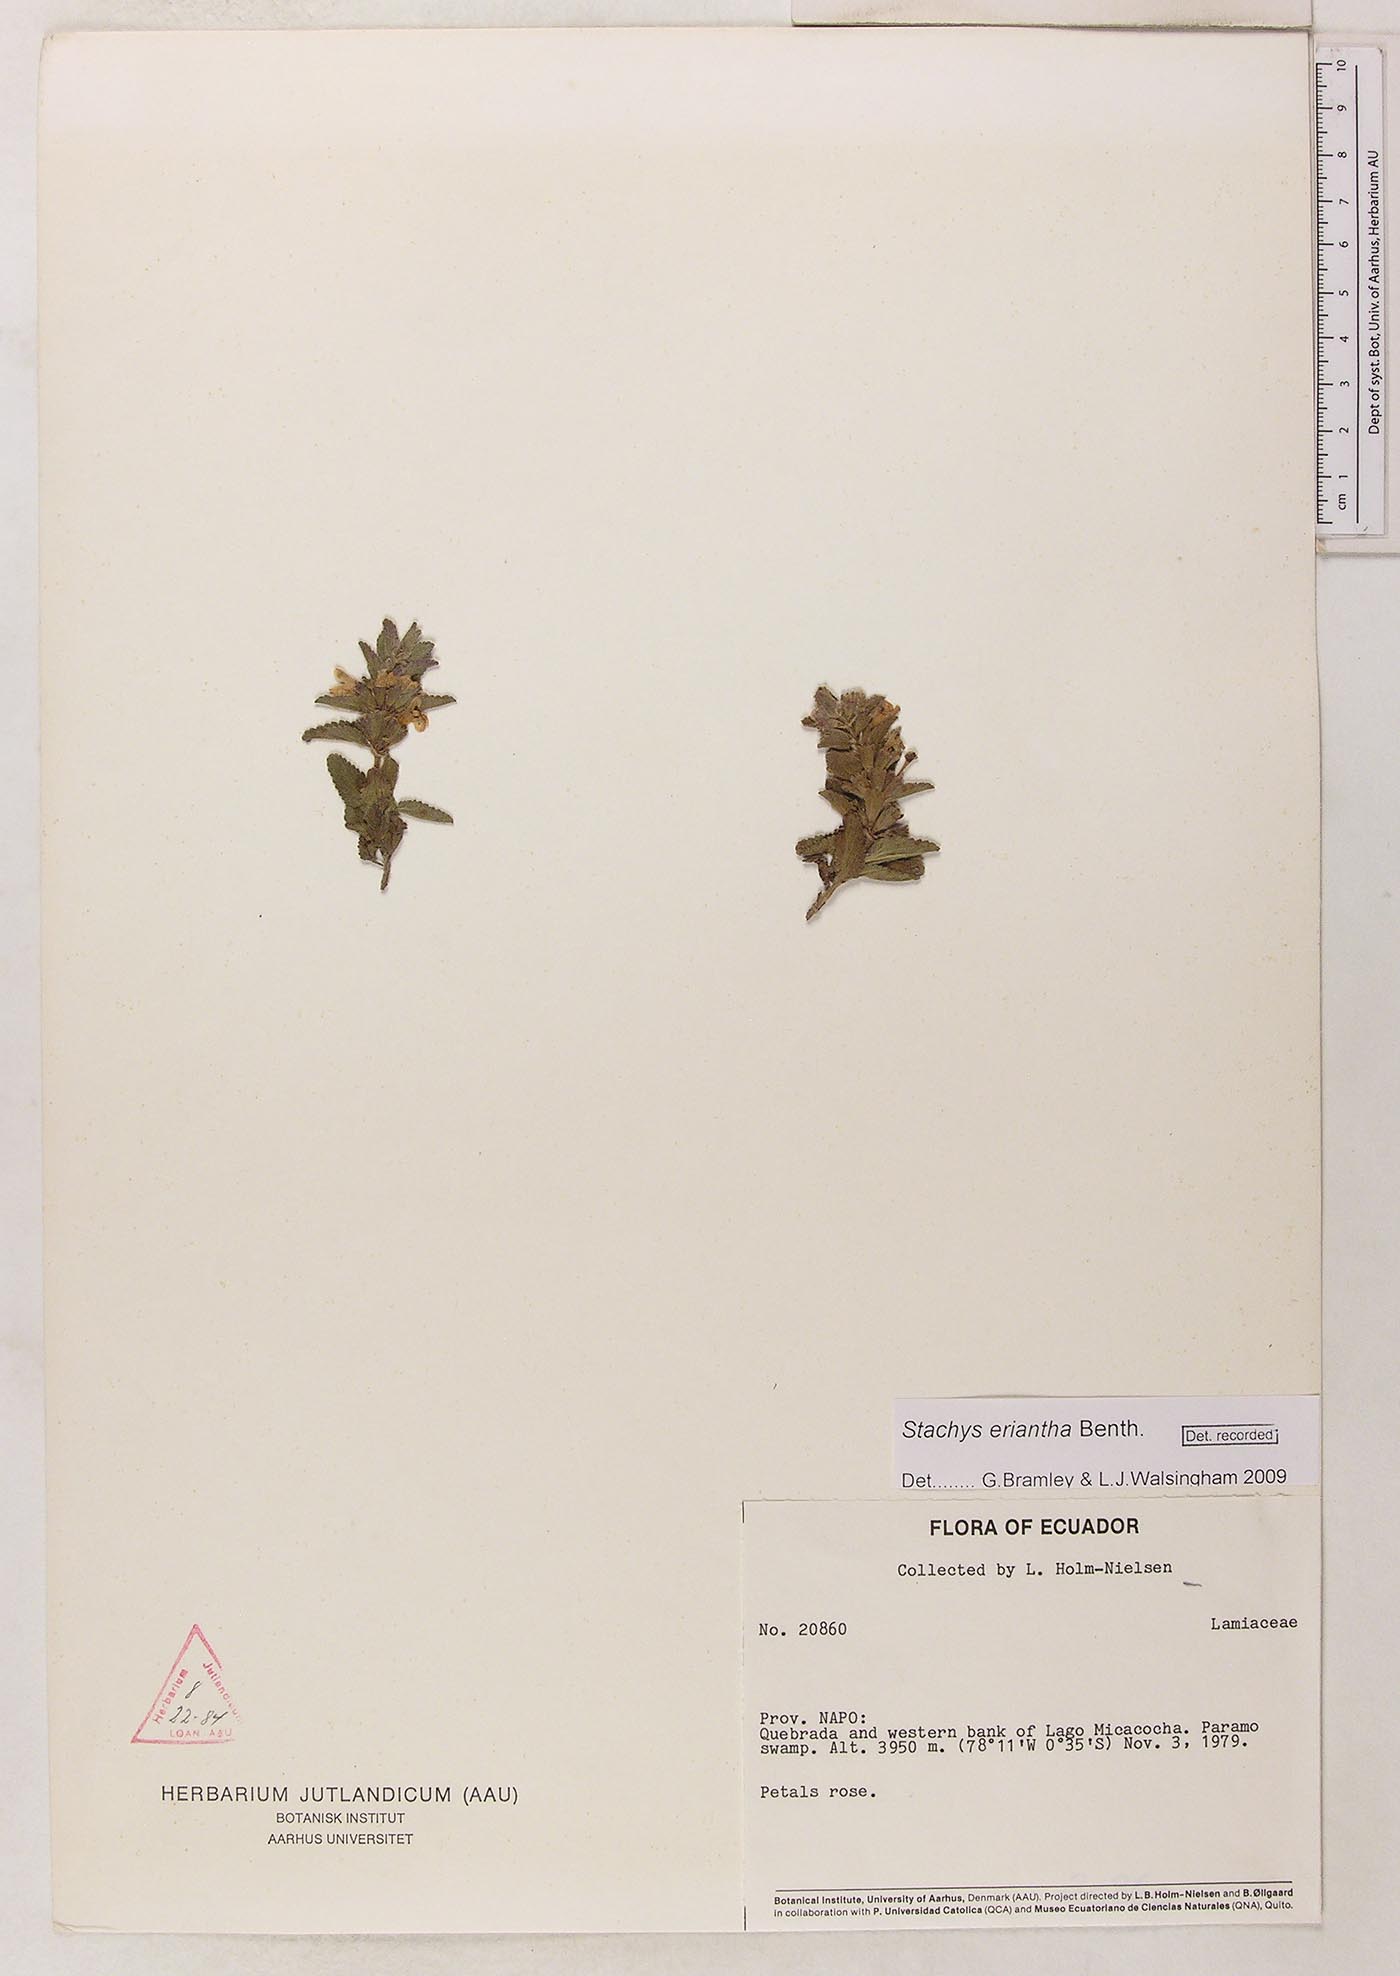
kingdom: Plantae
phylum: Tracheophyta
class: Magnoliopsida
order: Lamiales
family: Lamiaceae
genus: Stachys
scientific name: Stachys eriantha
